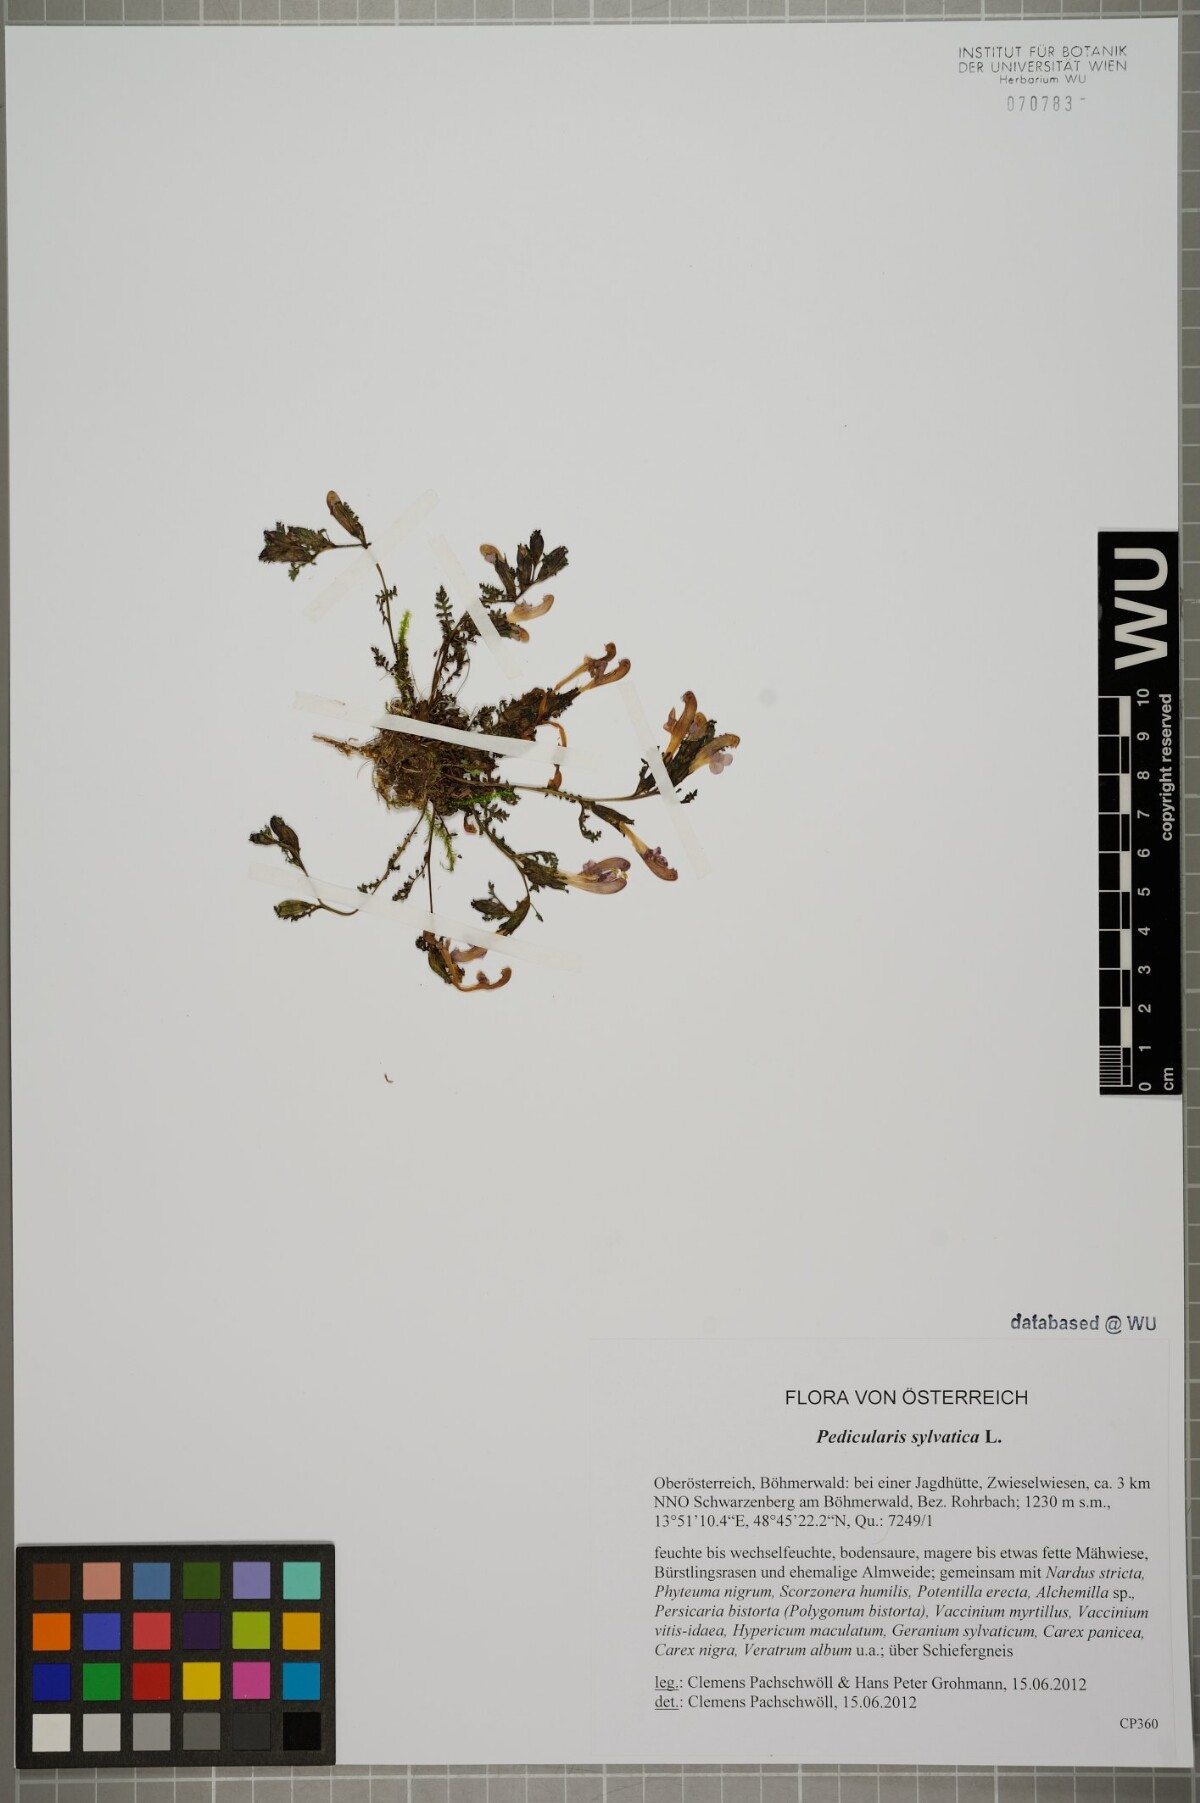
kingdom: Plantae
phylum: Tracheophyta
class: Magnoliopsida
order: Lamiales
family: Orobanchaceae
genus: Pedicularis
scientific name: Pedicularis sylvatica
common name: Lousewort
